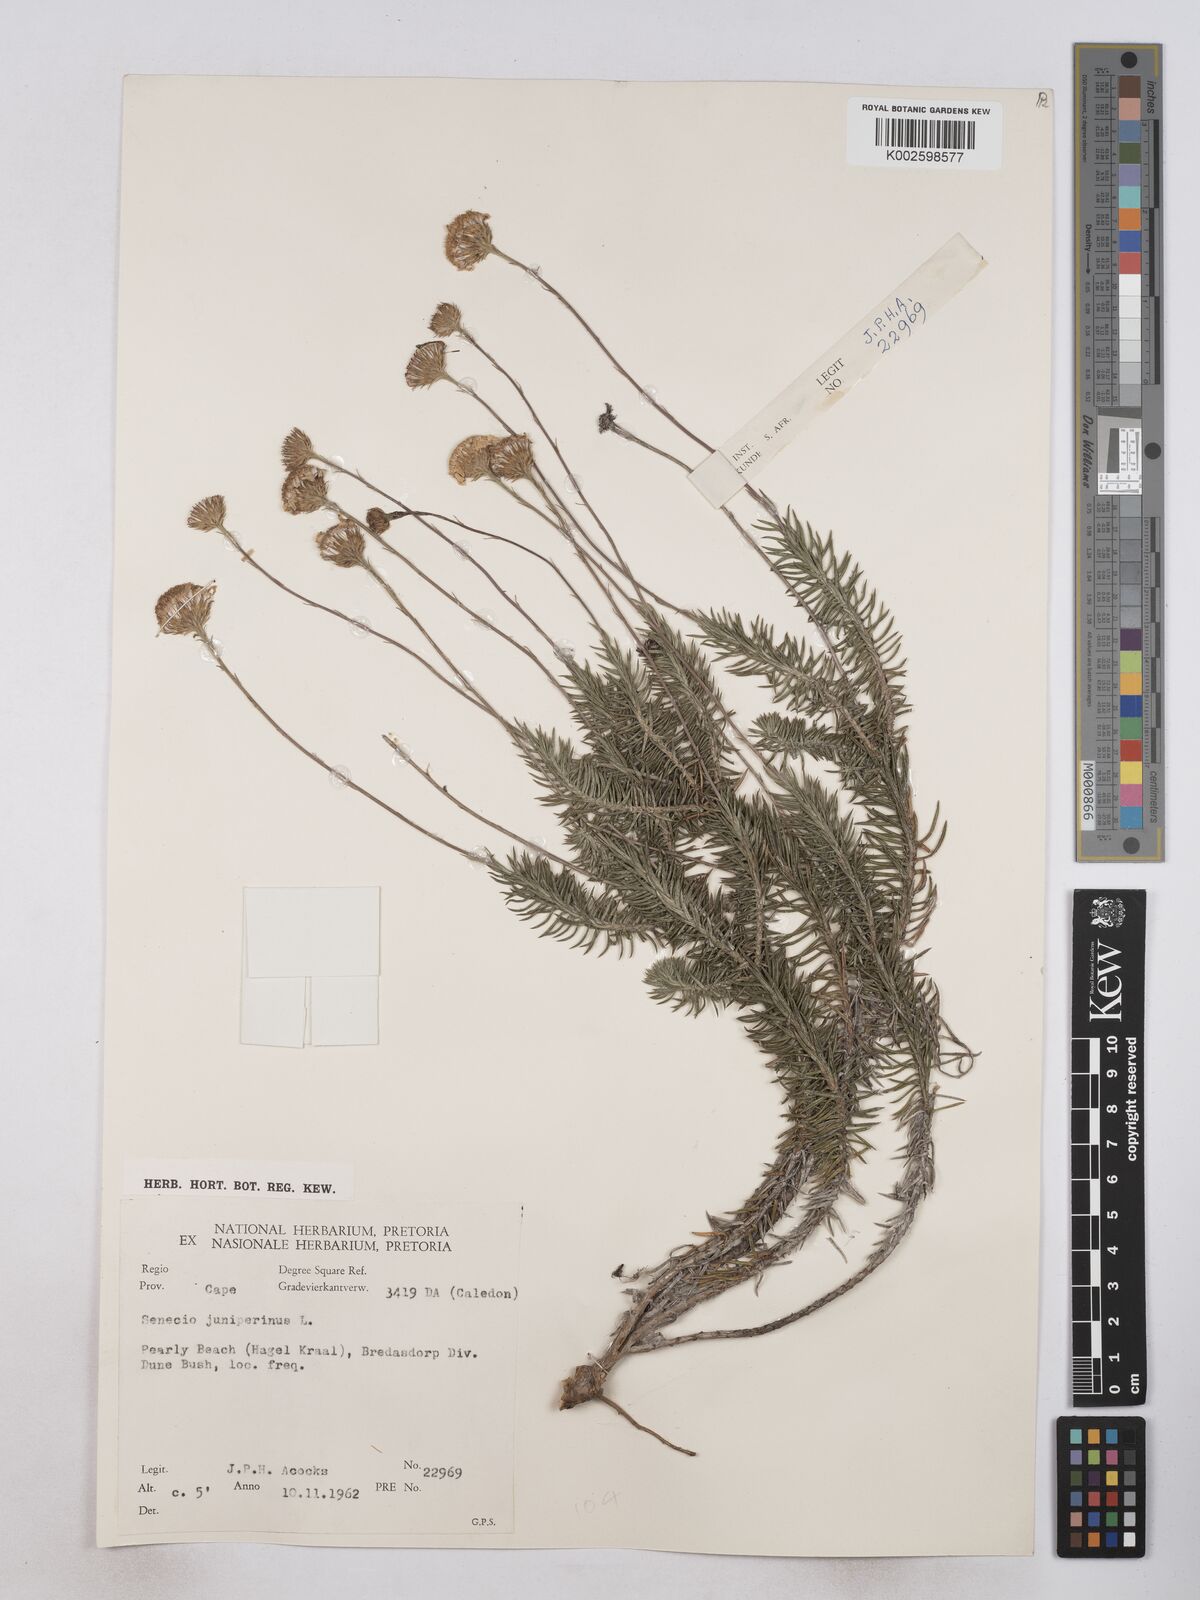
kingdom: Plantae
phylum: Tracheophyta
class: Magnoliopsida
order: Asterales
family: Asteraceae
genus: Senecio
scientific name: Senecio juniperinus
